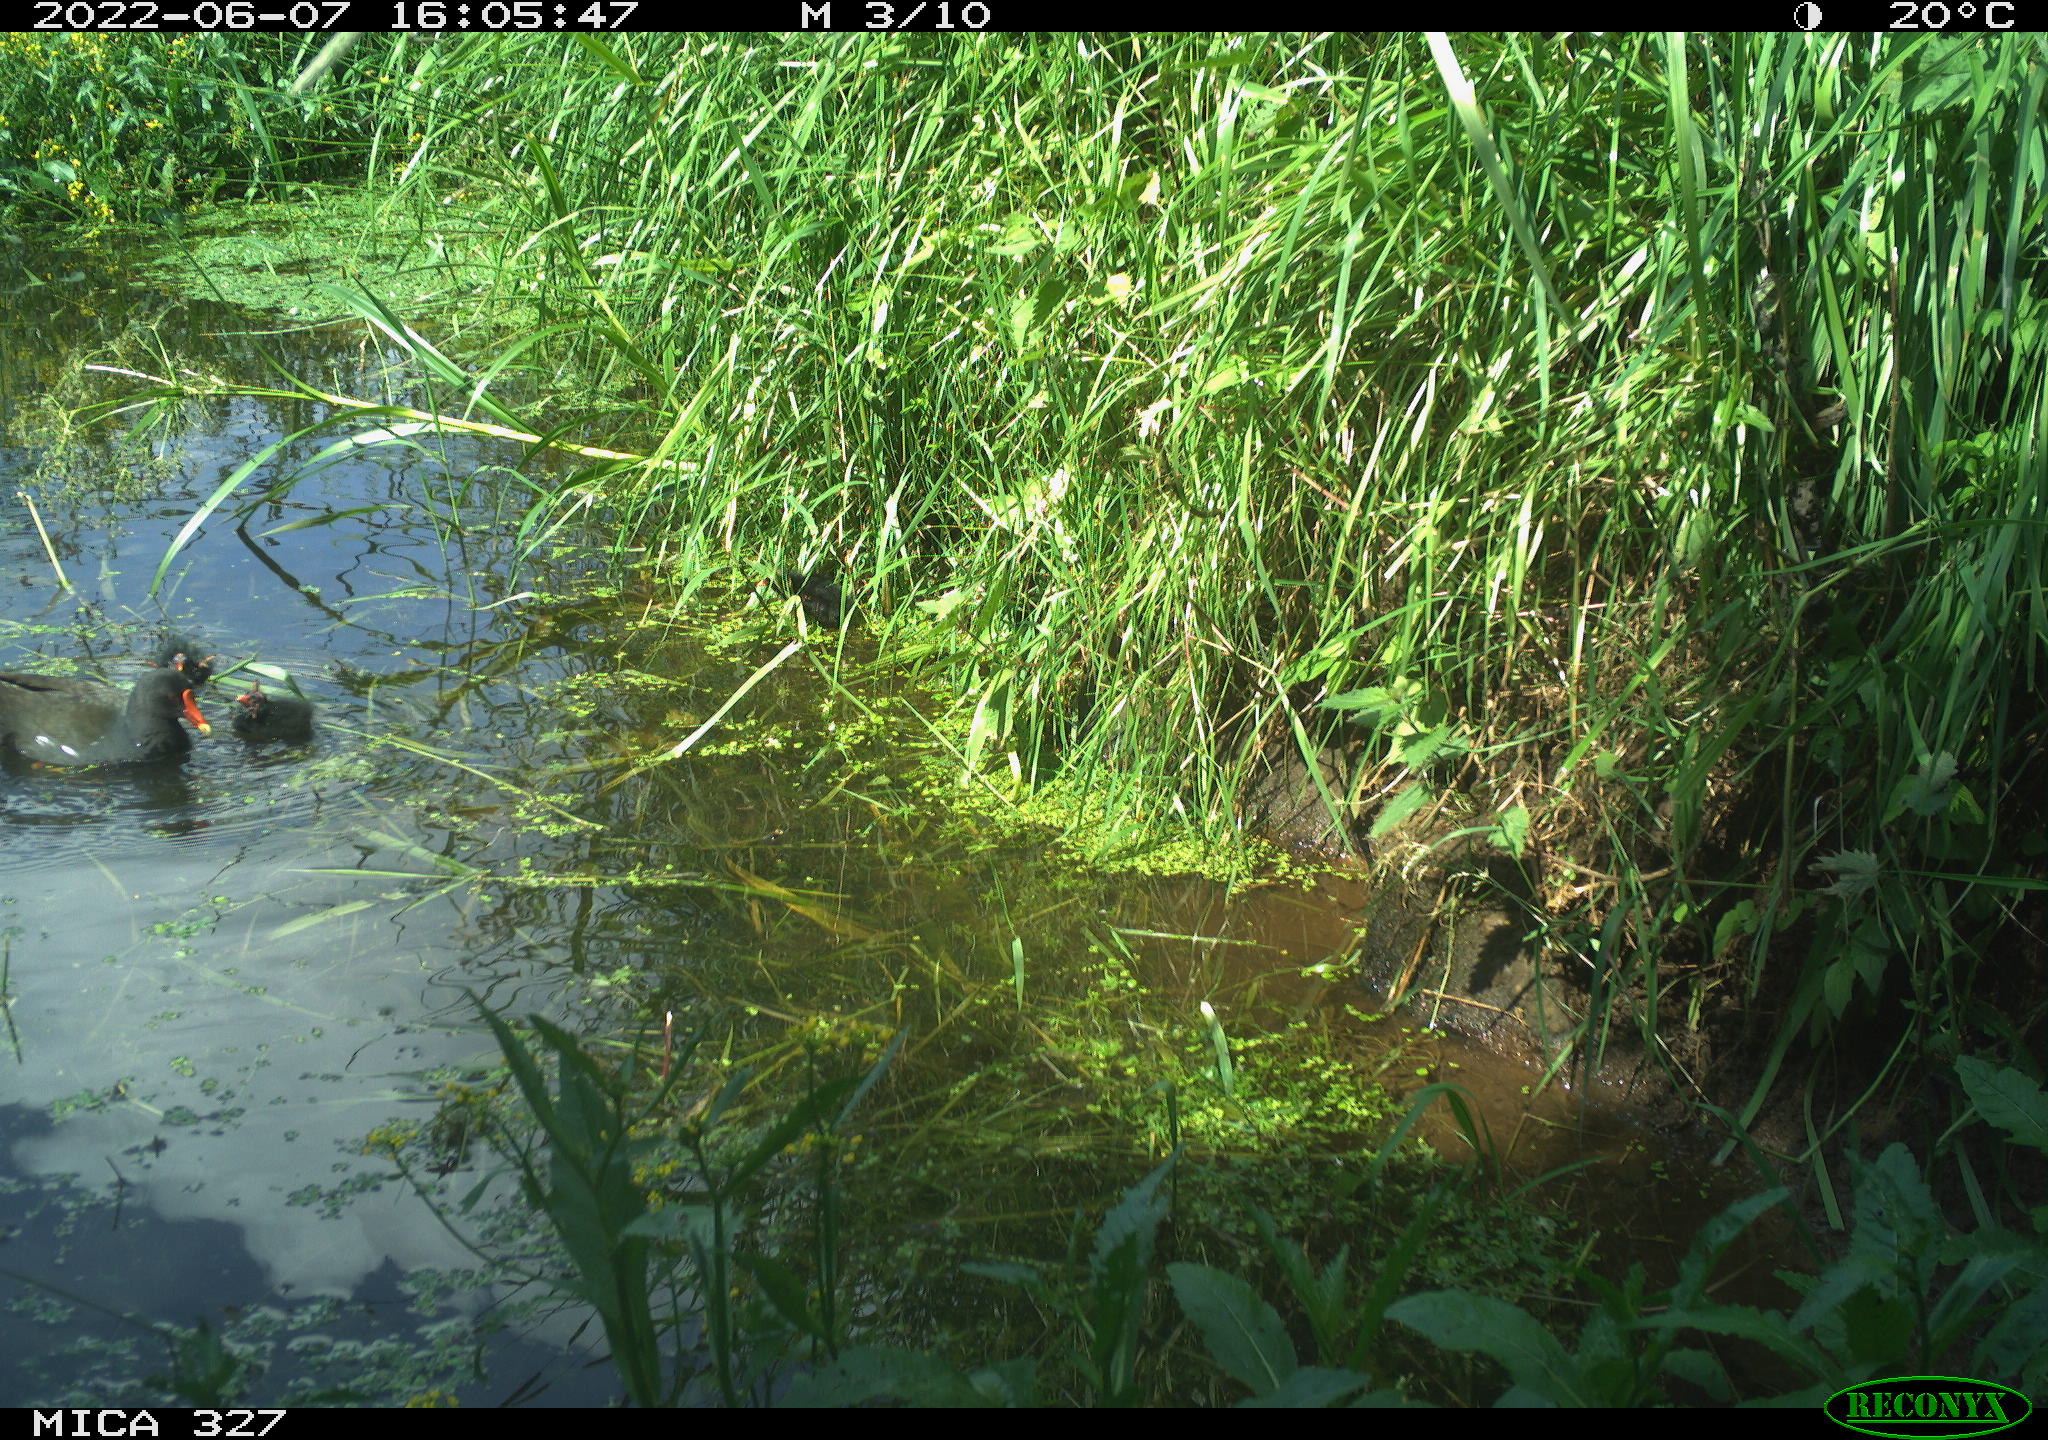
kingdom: Animalia
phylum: Chordata
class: Aves
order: Gruiformes
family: Rallidae
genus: Gallinula
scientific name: Gallinula chloropus
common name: Common moorhen
